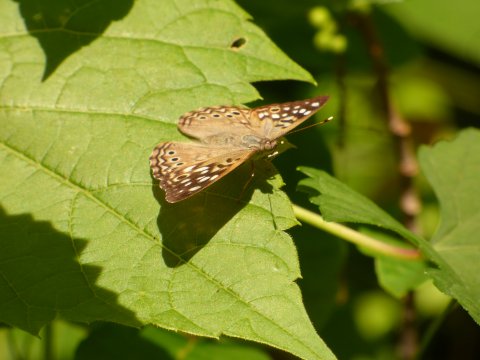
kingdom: Animalia
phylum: Arthropoda
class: Insecta
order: Lepidoptera
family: Nymphalidae
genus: Asterocampa
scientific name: Asterocampa celtis
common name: Hackberry Emperor
